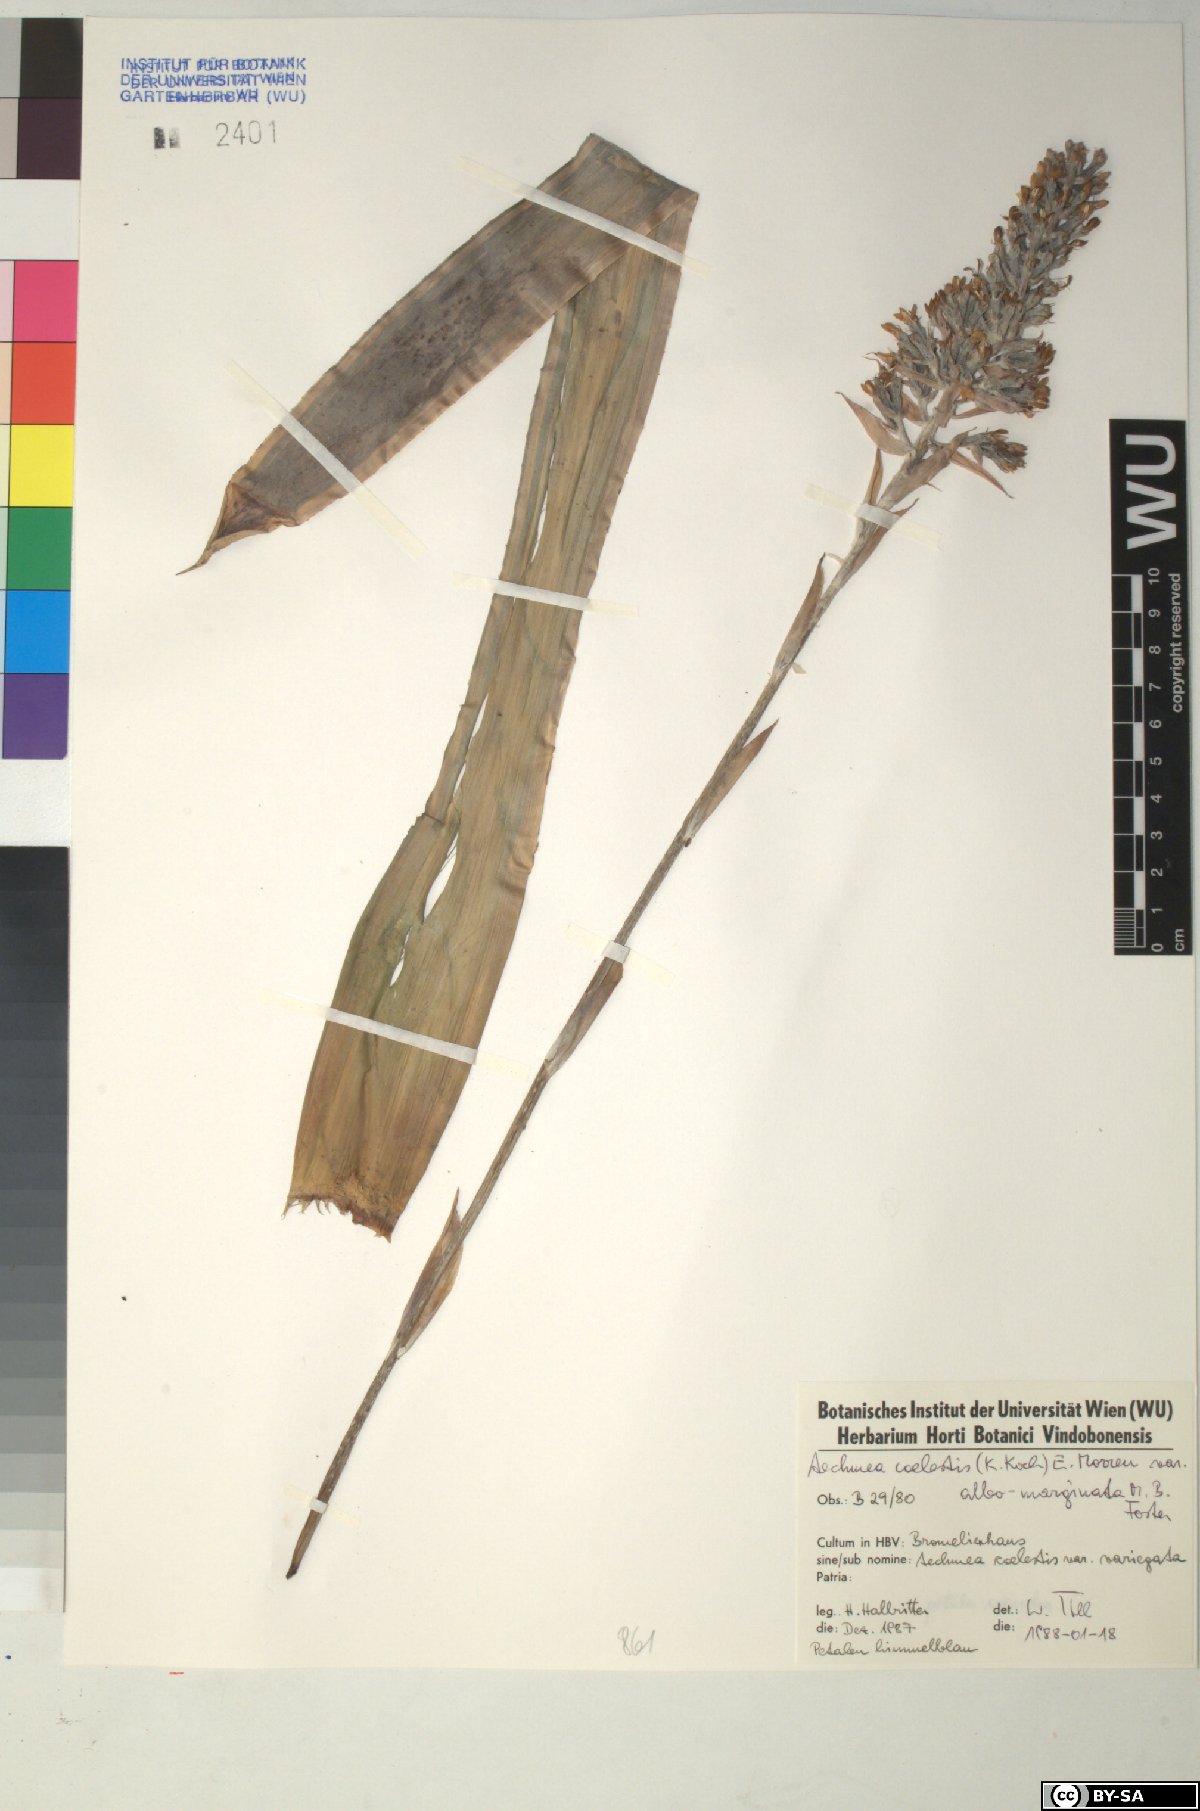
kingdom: Plantae
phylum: Tracheophyta
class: Liliopsida
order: Poales
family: Bromeliaceae
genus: Aechmea
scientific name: Aechmea coelestis
